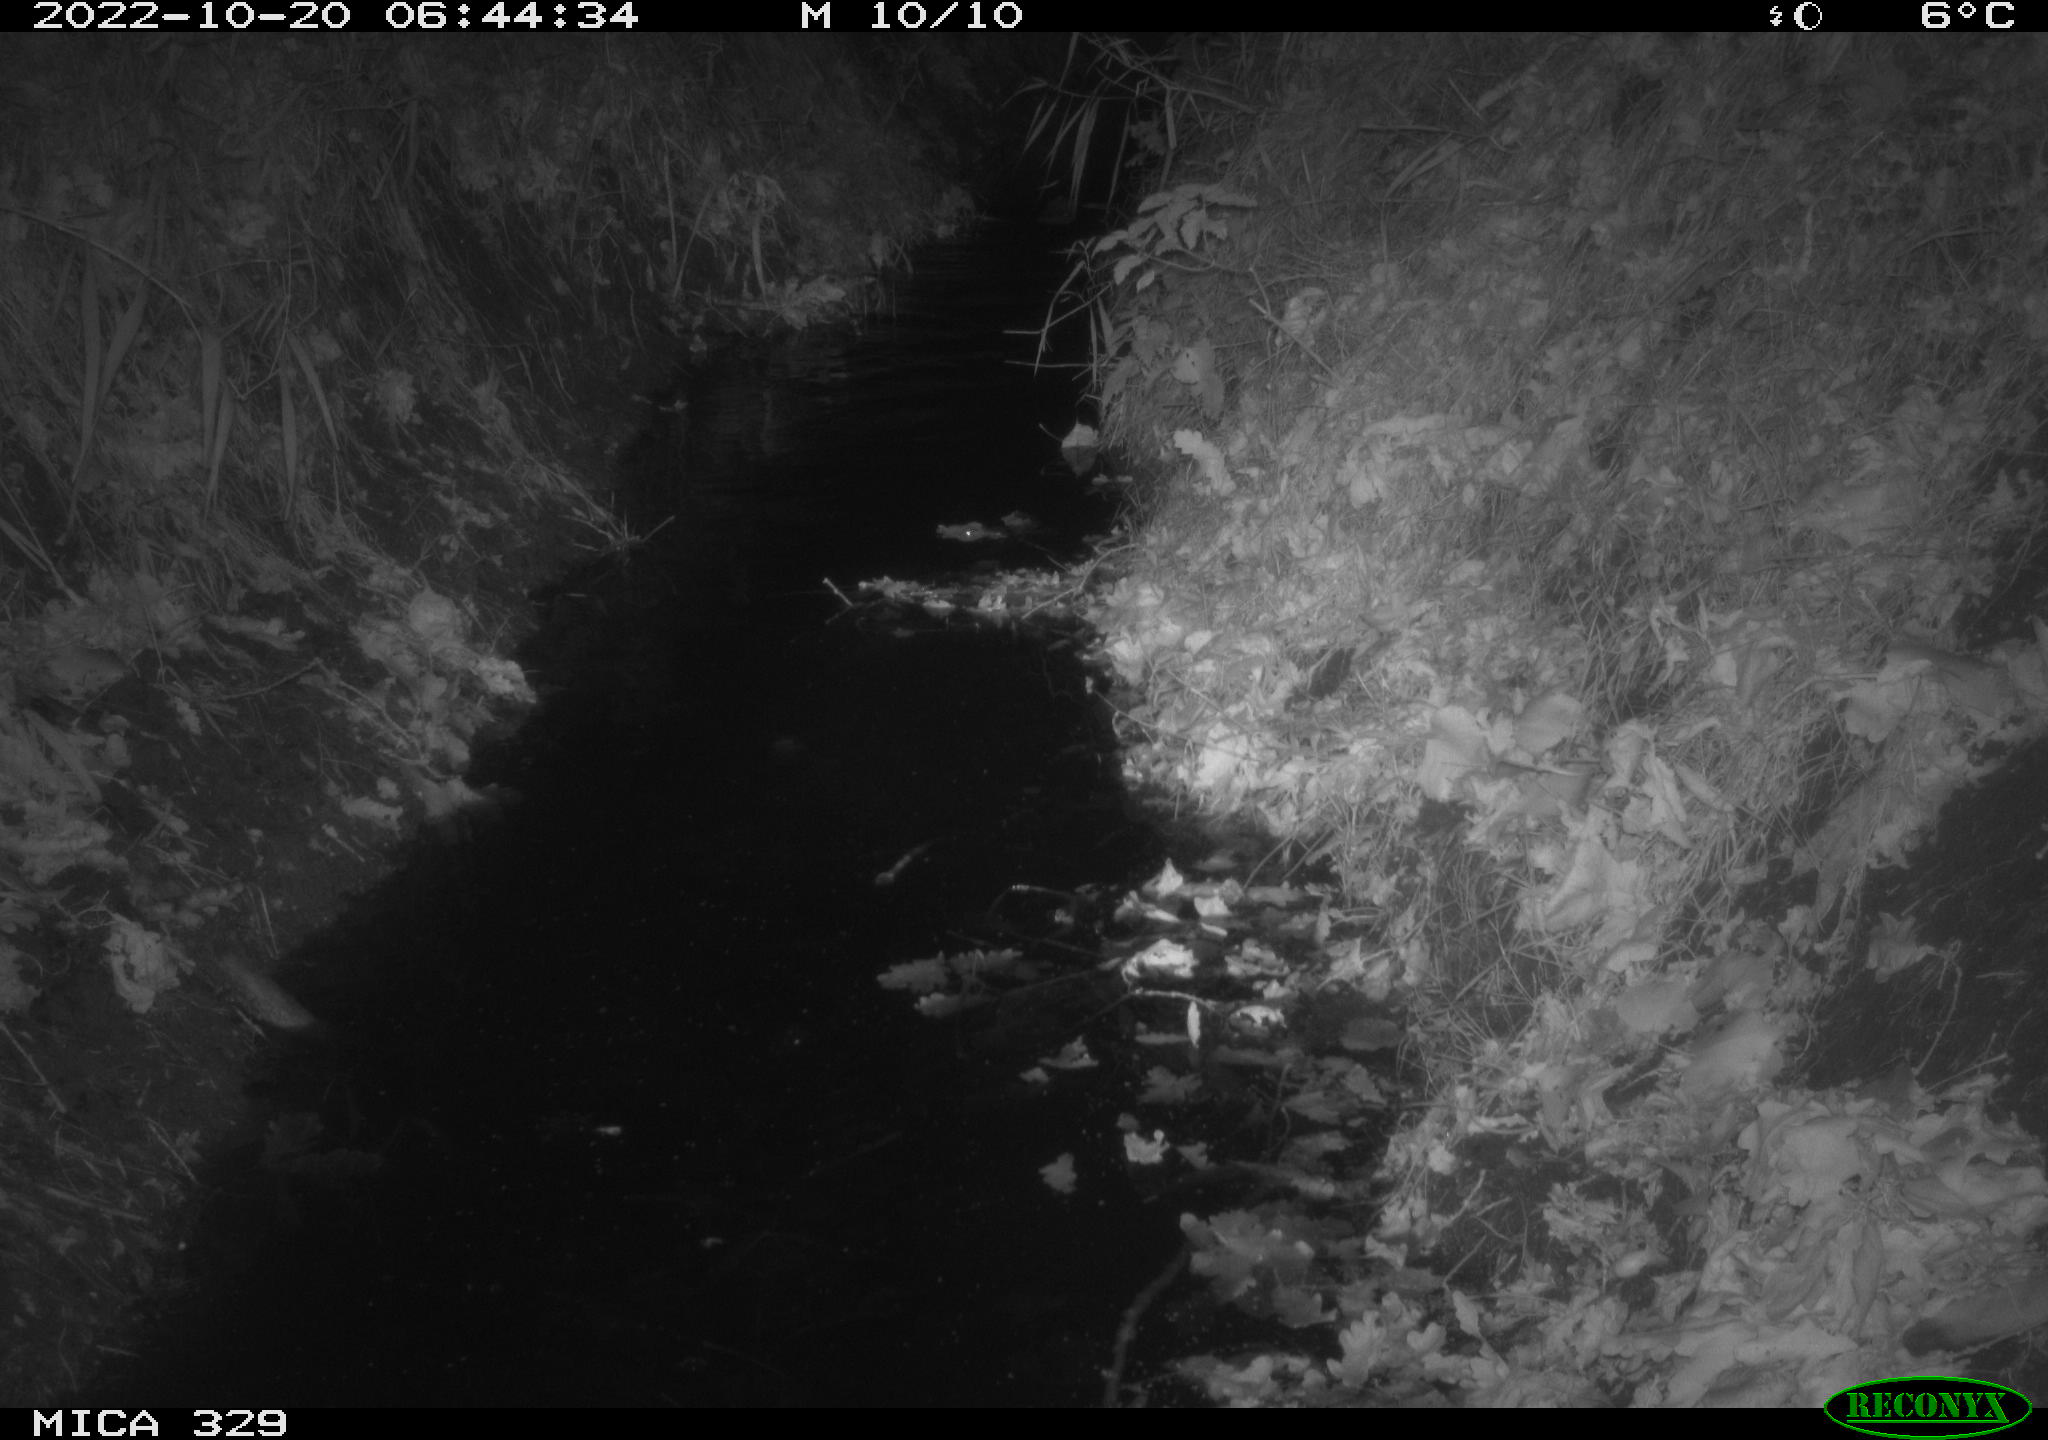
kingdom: Animalia
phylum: Chordata
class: Mammalia
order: Rodentia
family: Cricetidae
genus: Ondatra
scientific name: Ondatra zibethicus
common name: Muskrat
